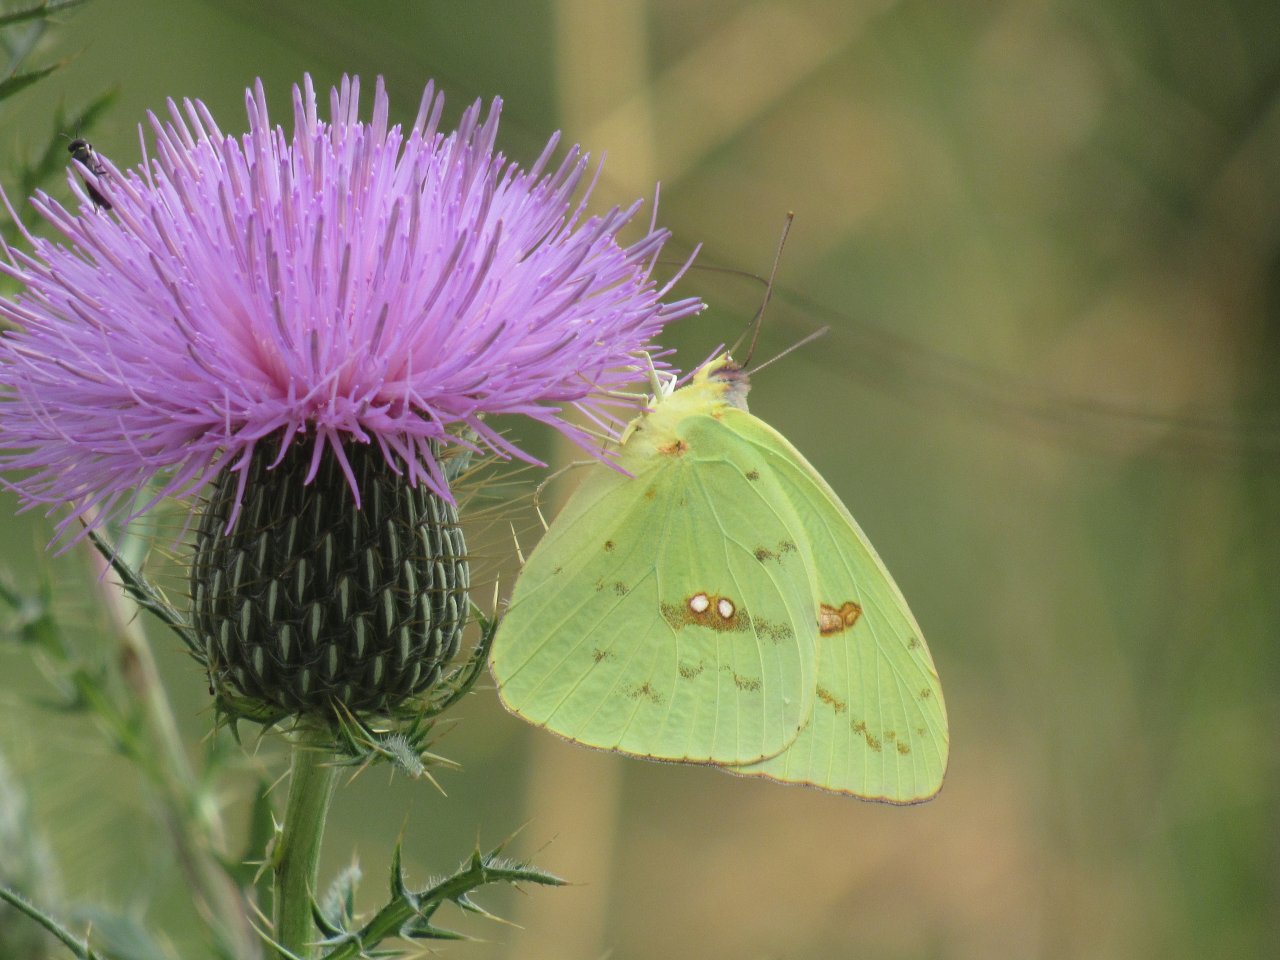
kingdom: Animalia
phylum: Arthropoda
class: Insecta
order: Lepidoptera
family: Pieridae
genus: Phoebis
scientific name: Phoebis sennae
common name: Cloudless Sulphur
